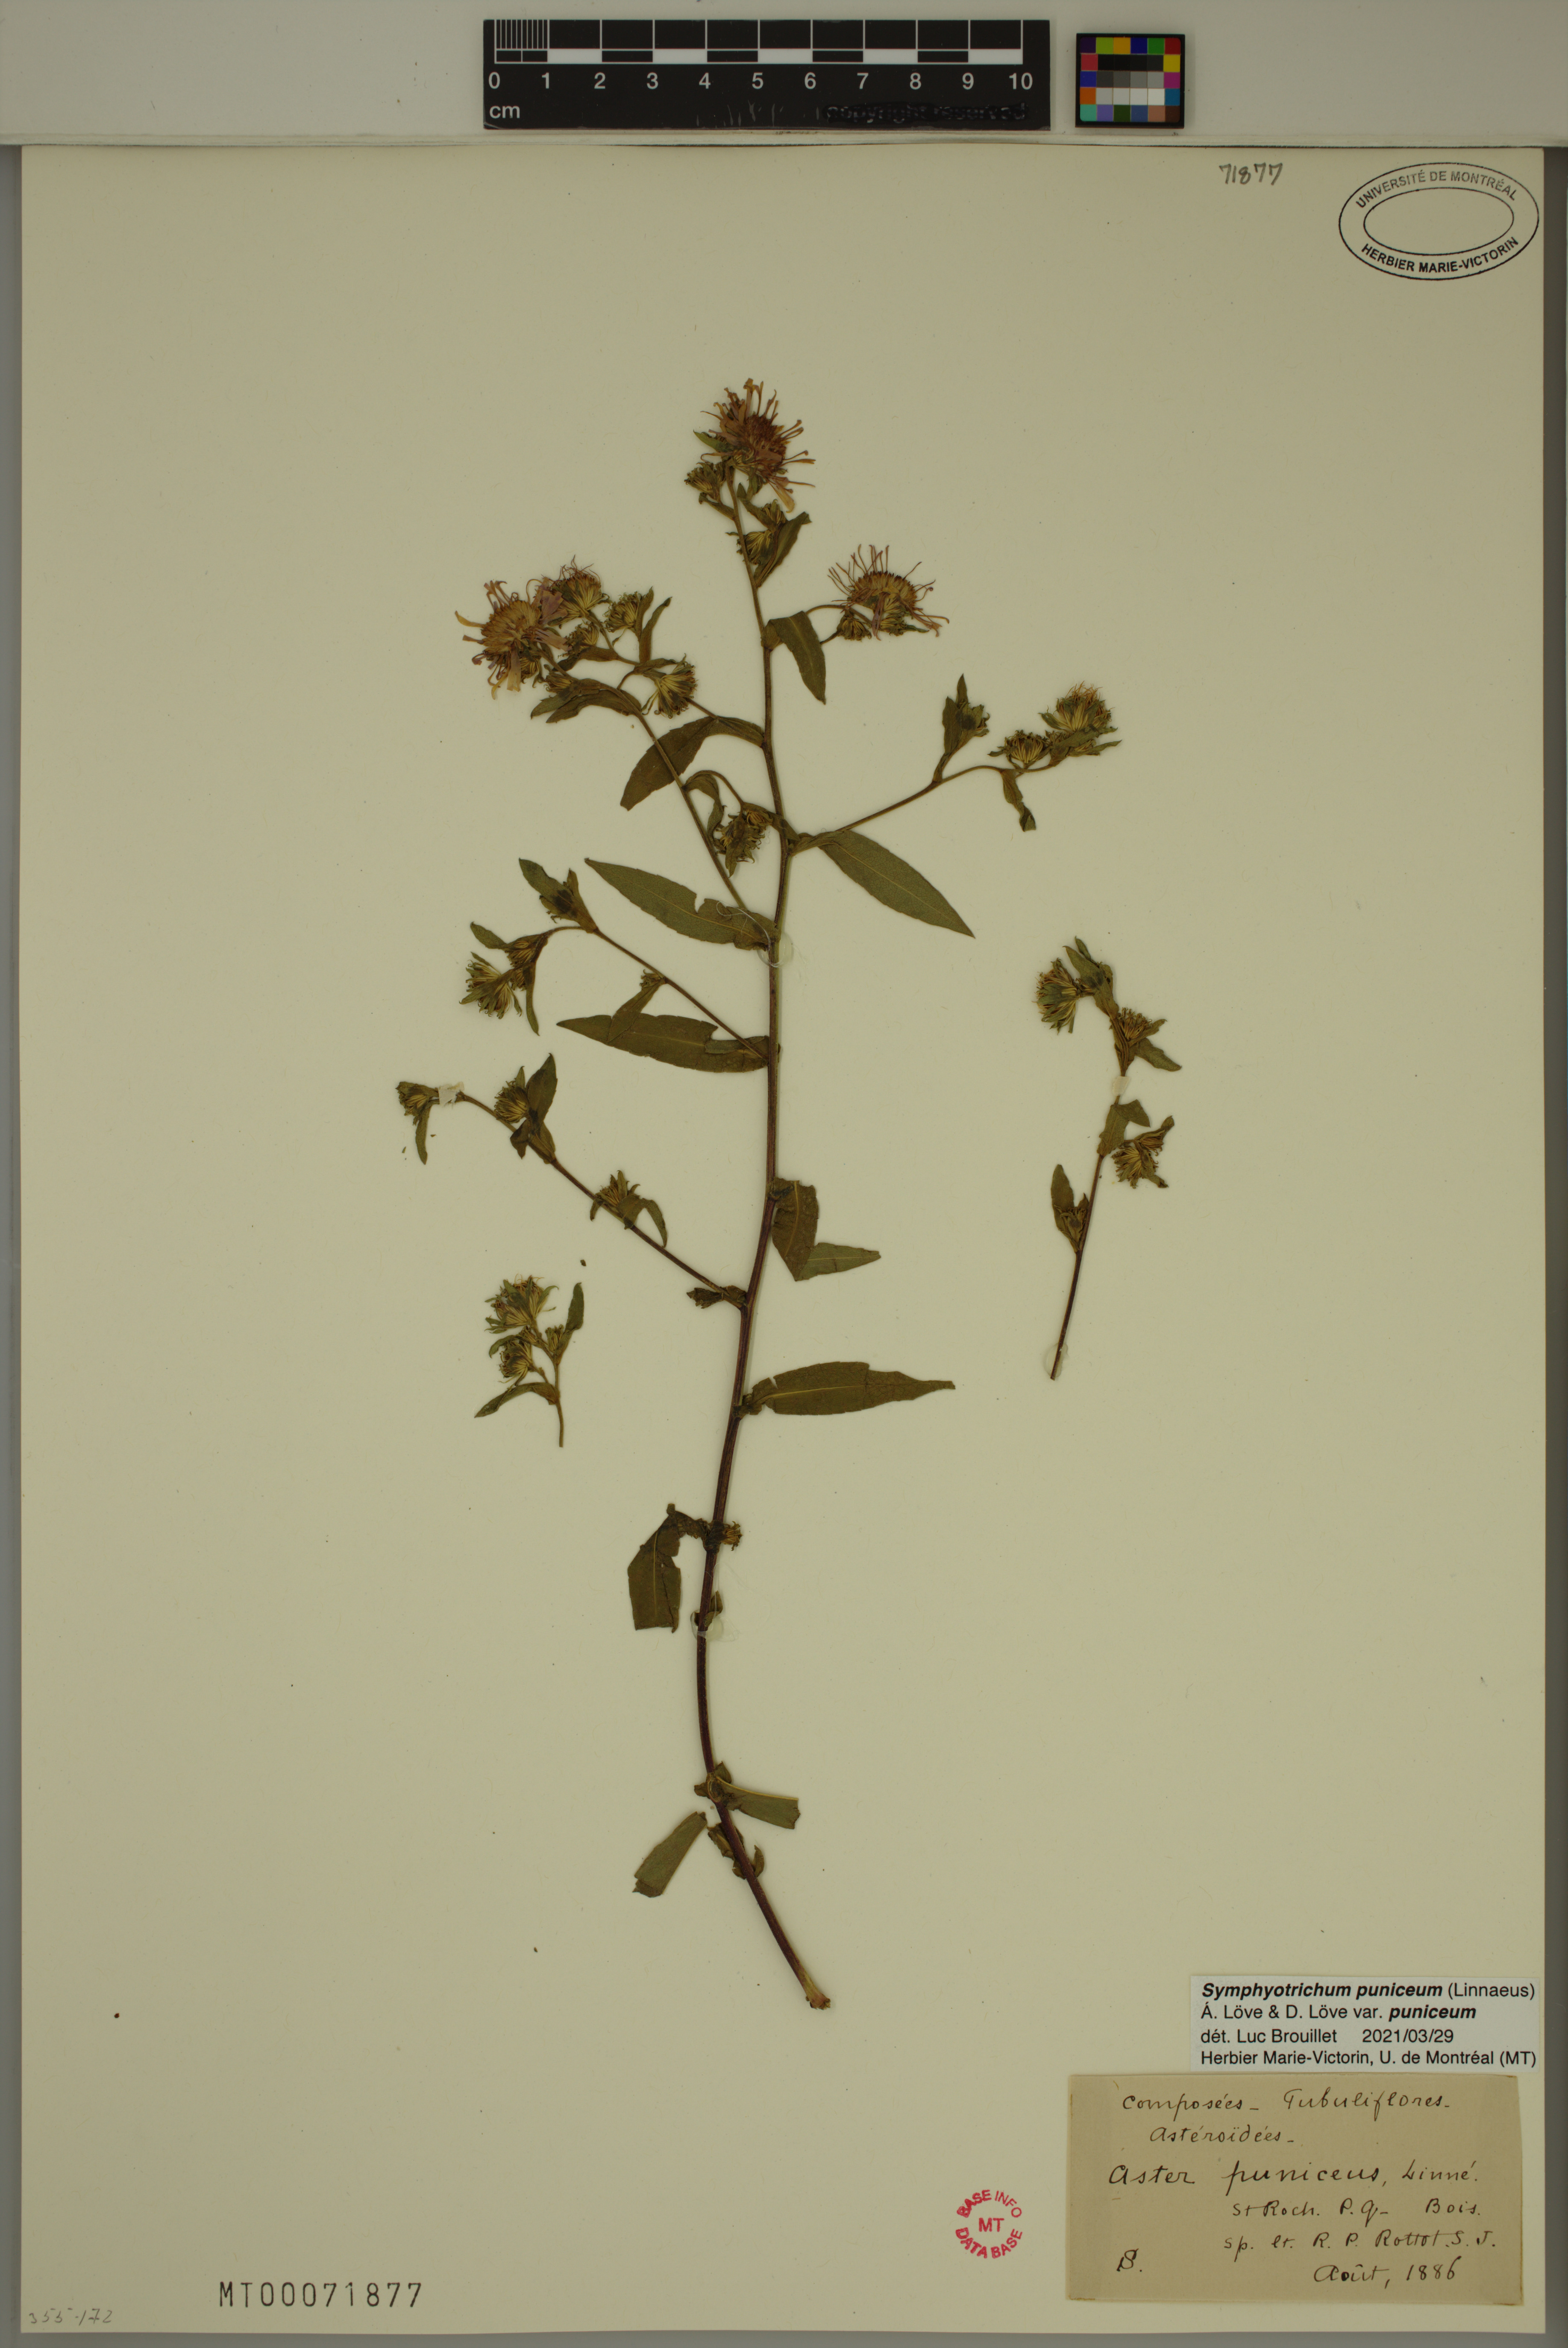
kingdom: Plantae
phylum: Tracheophyta
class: Magnoliopsida
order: Asterales
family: Asteraceae
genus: Symphyotrichum
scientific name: Symphyotrichum puniceum
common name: Bog aster
